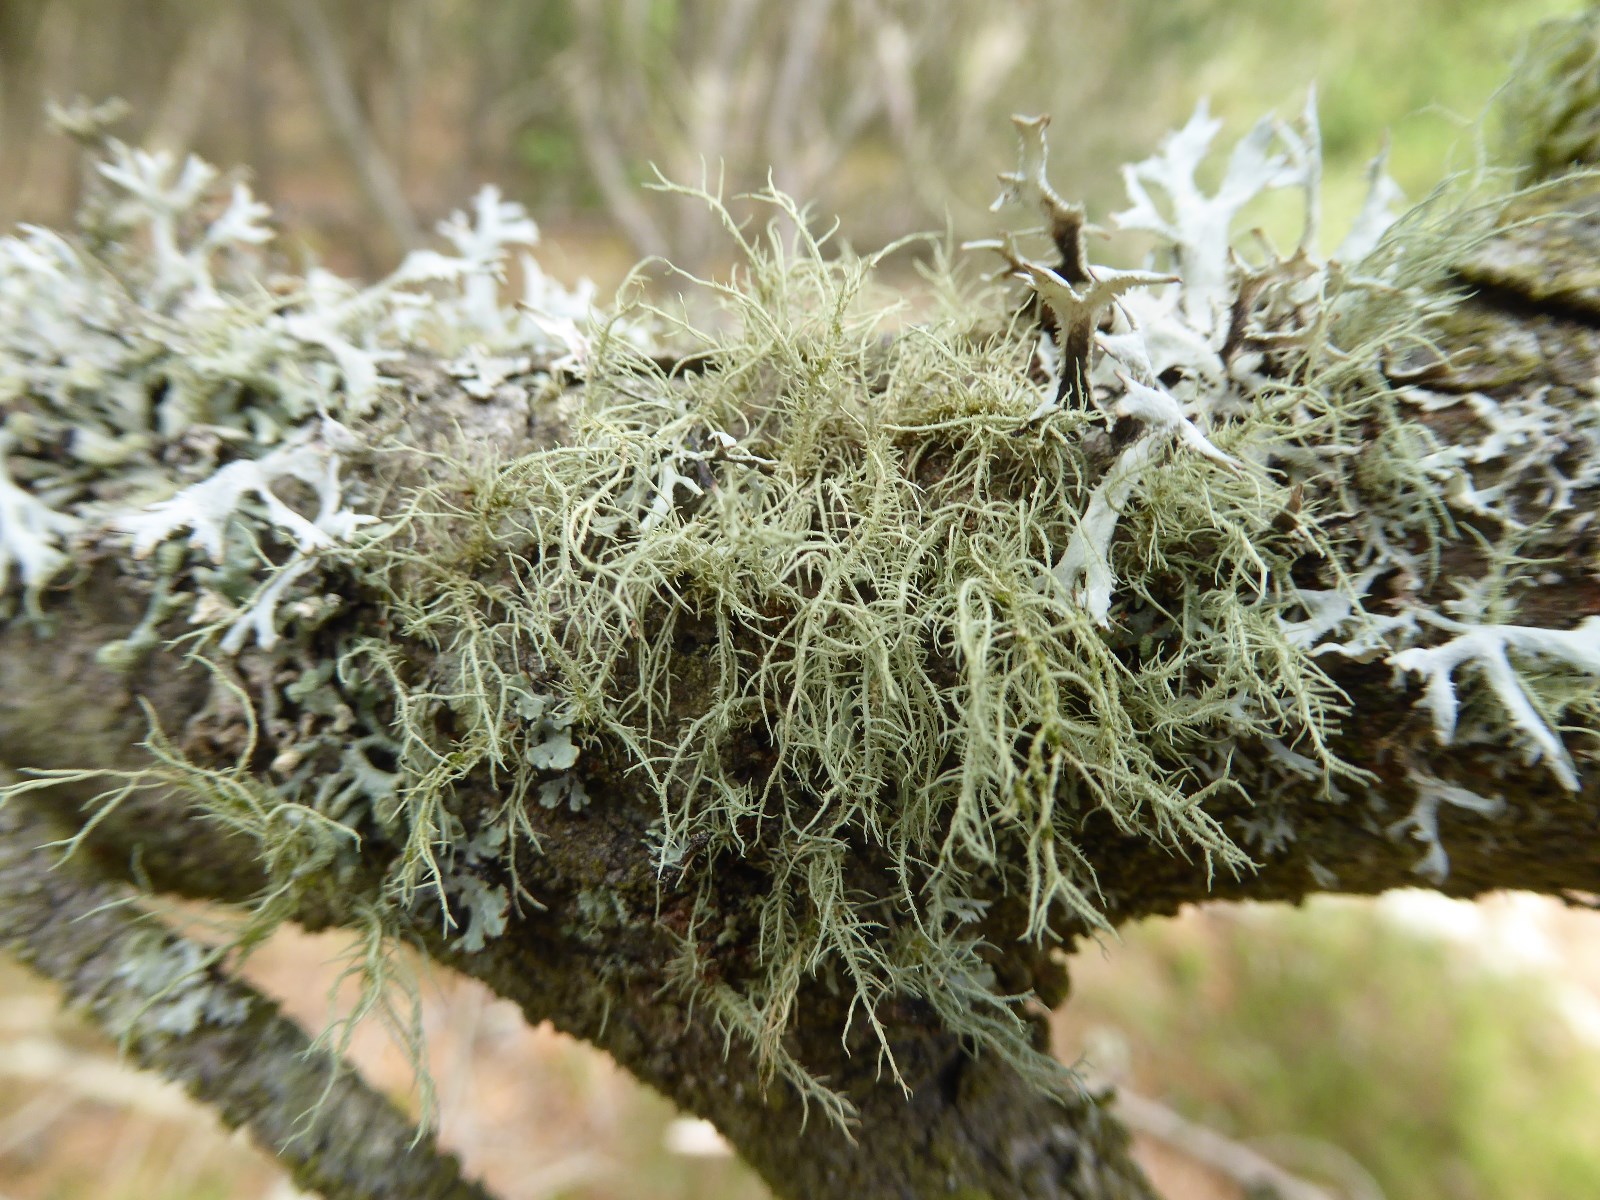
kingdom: Fungi
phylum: Ascomycota
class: Lecanoromycetes
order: Lecanorales
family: Parmeliaceae
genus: Usnea
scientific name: Usnea hirta
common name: liden skæglav
